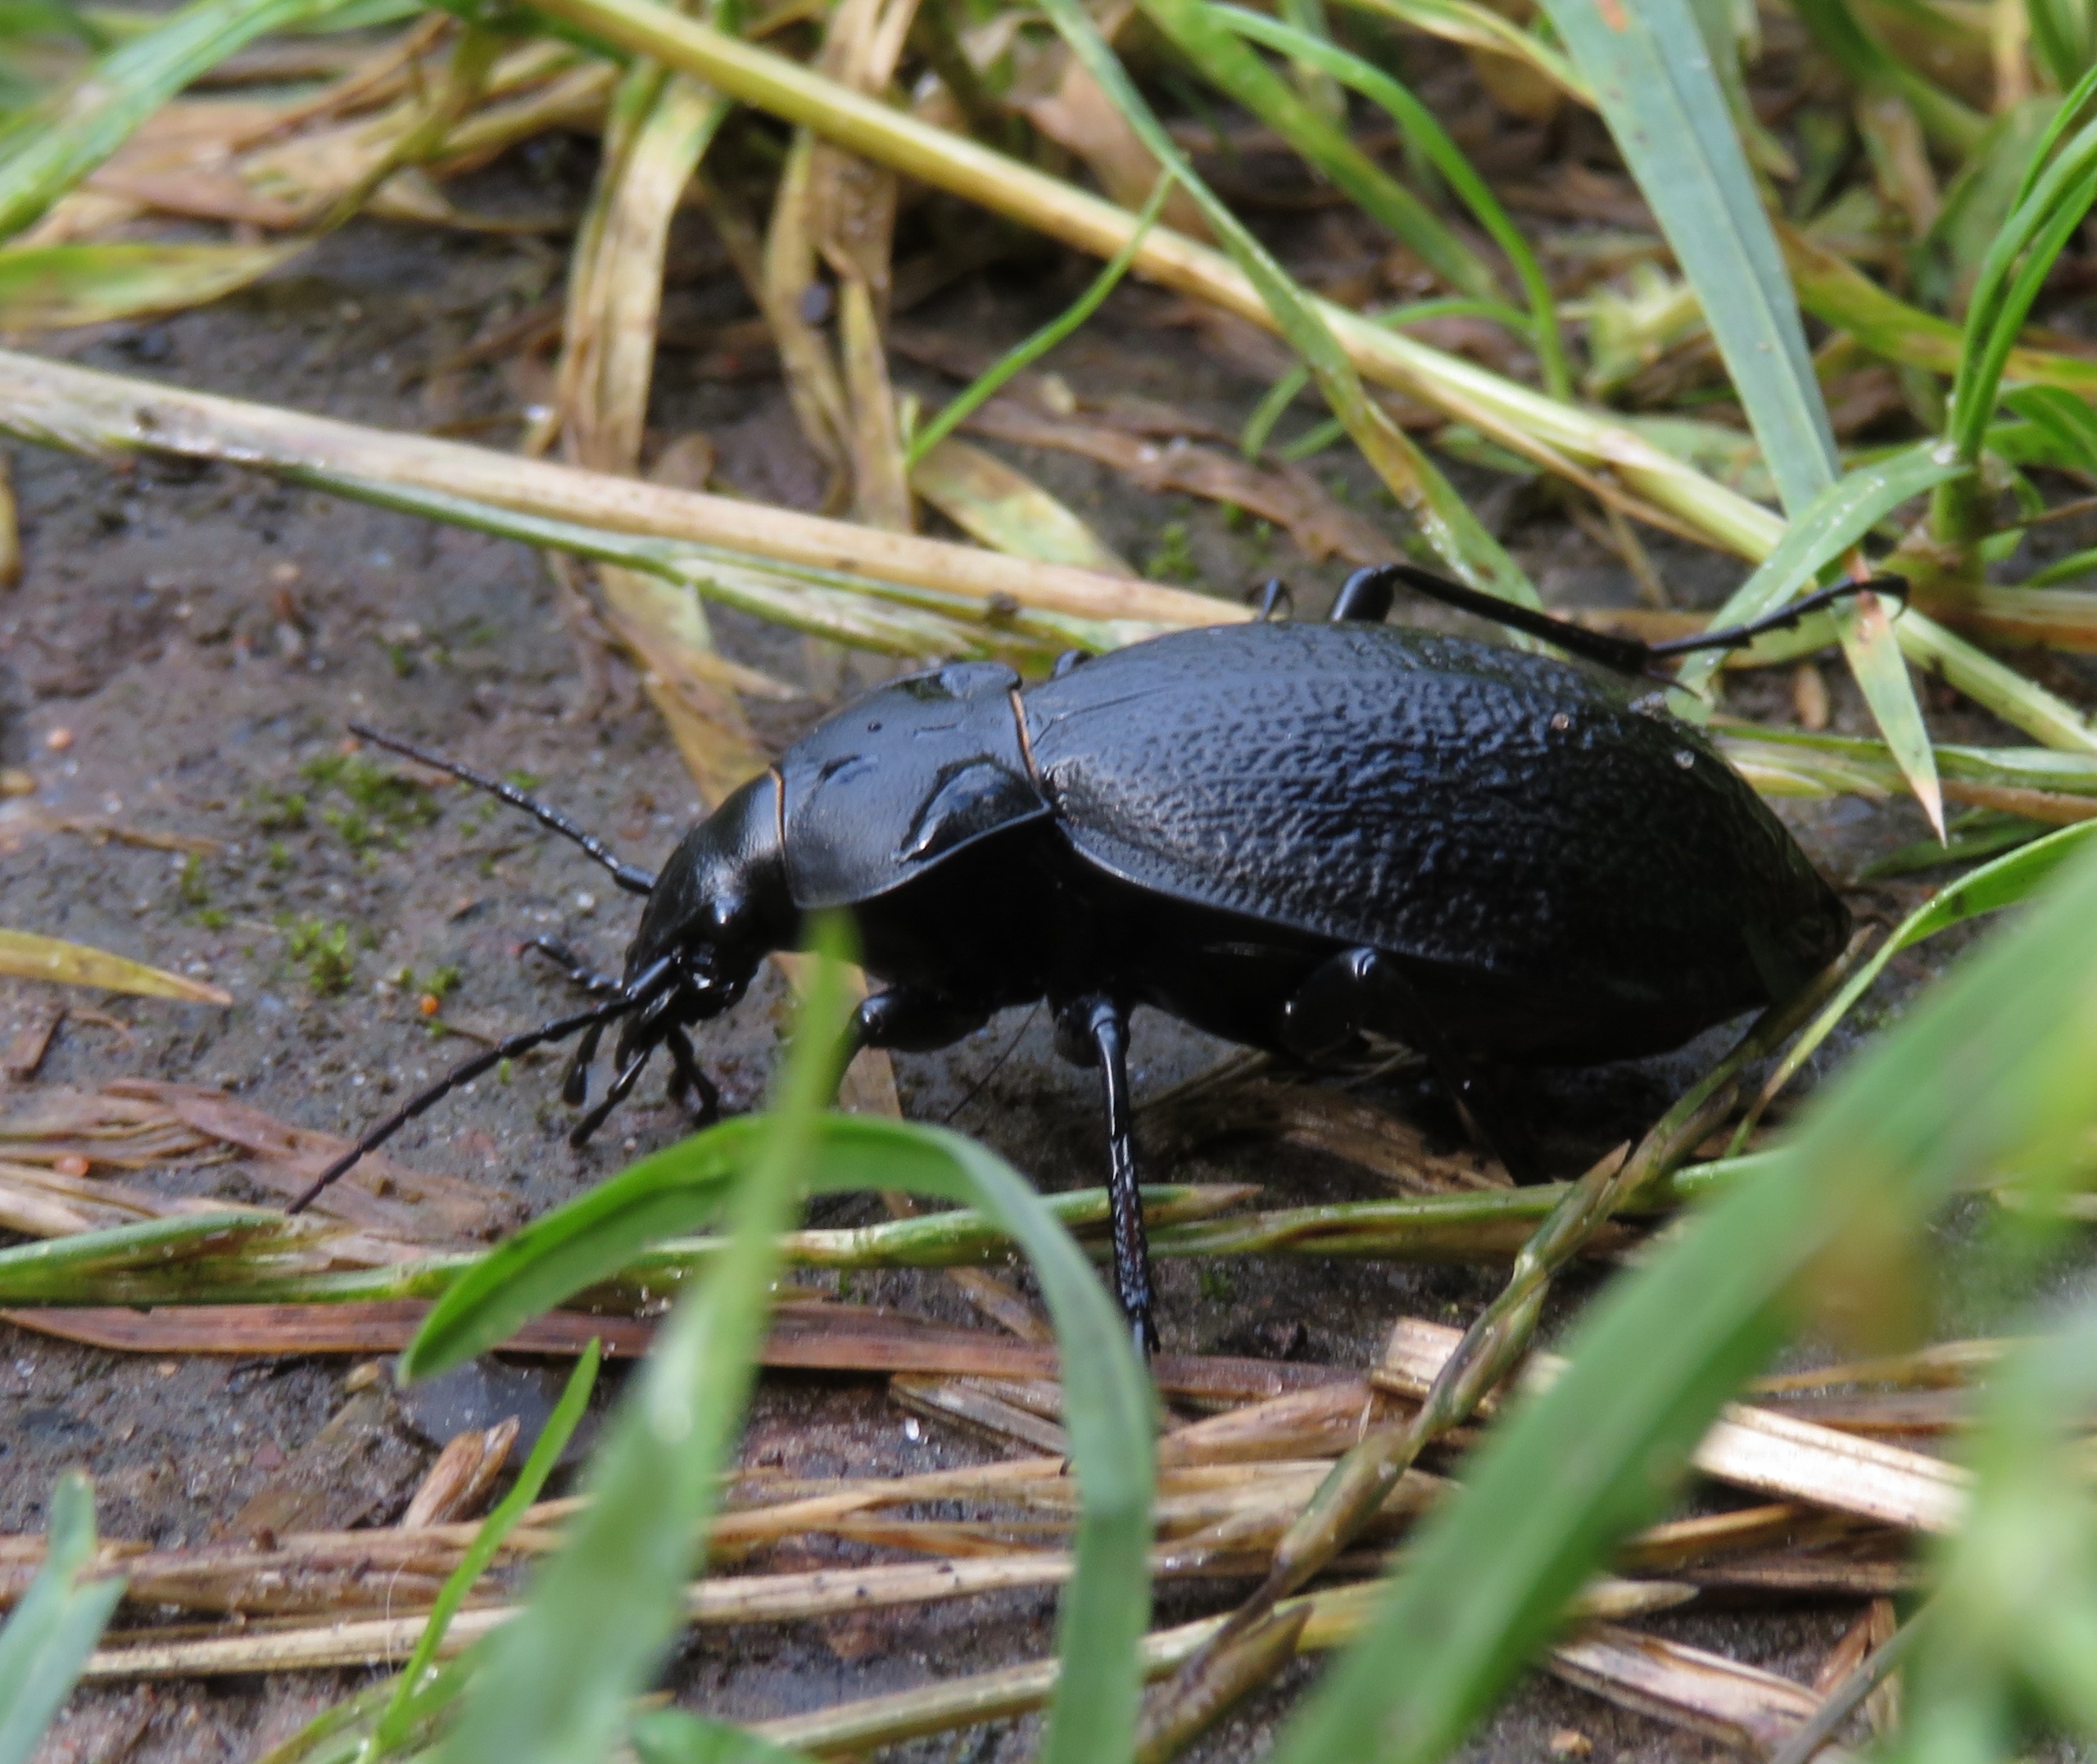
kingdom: Animalia
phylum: Arthropoda
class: Insecta
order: Coleoptera
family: Carabidae
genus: Carabus
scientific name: Carabus coriaceus
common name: Læderløber
